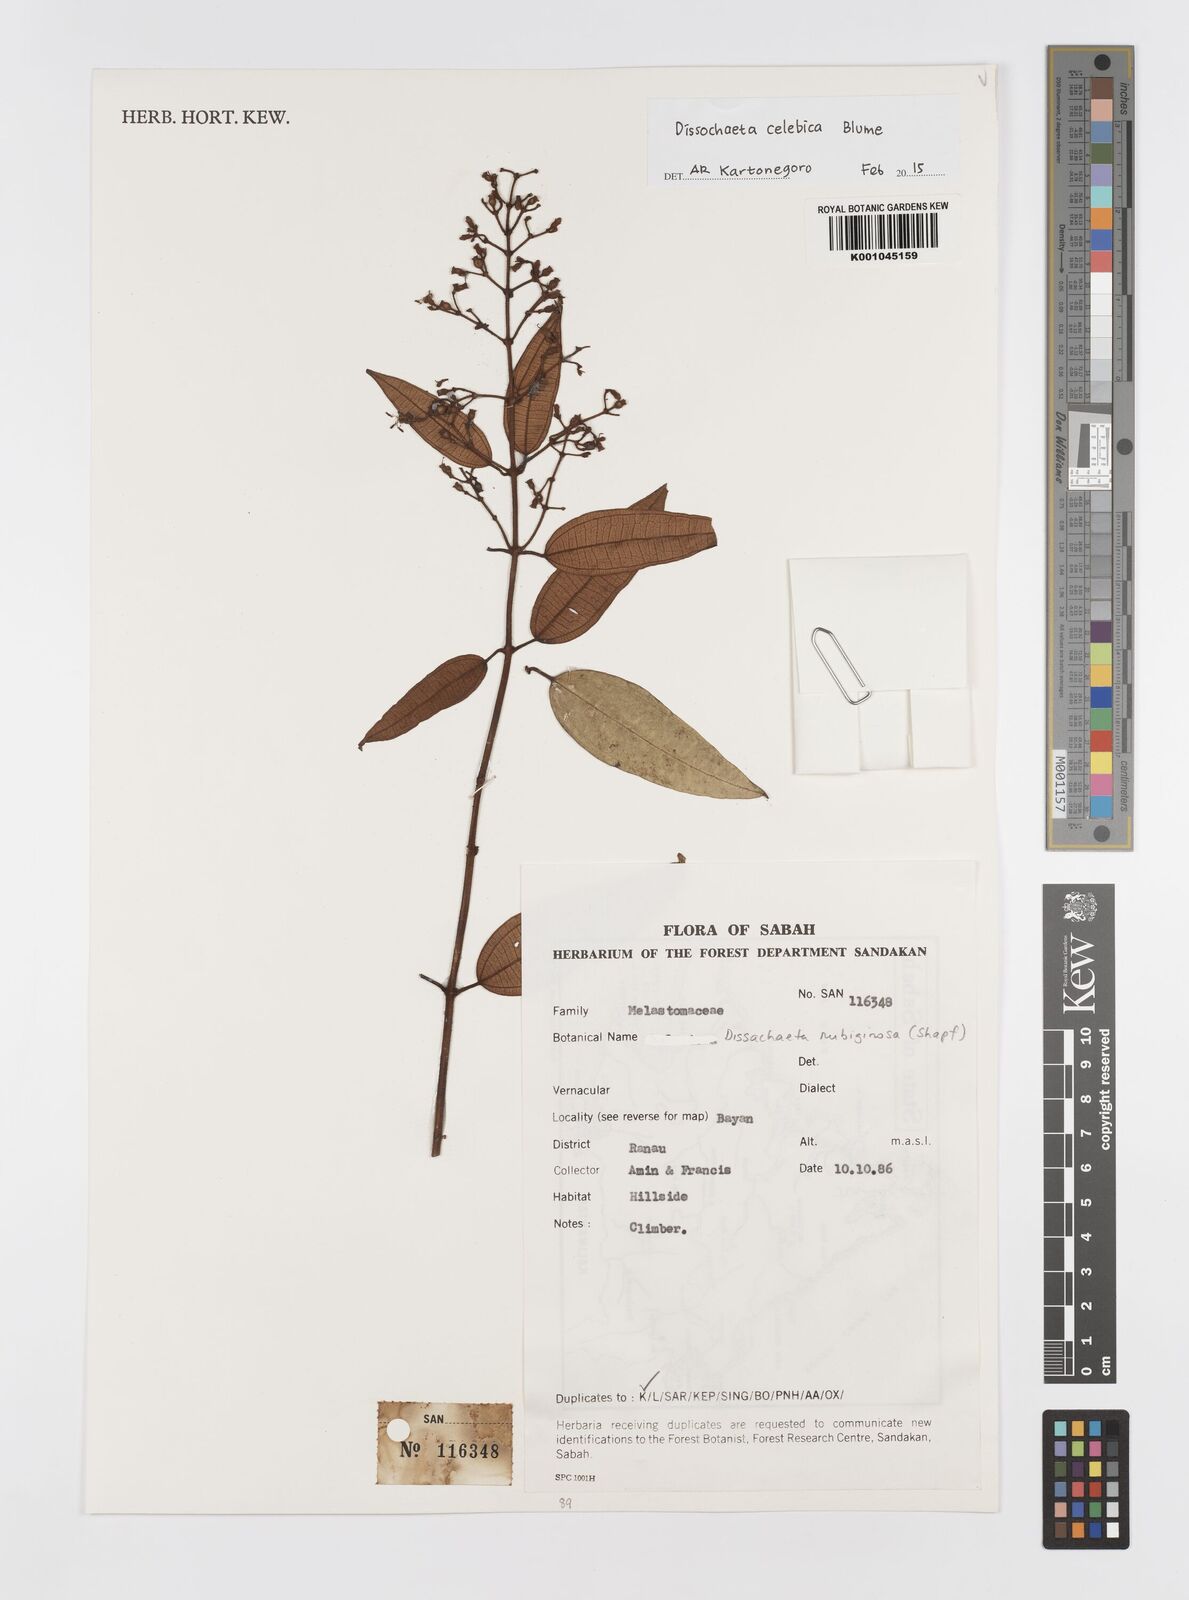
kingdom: Plantae
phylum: Tracheophyta
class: Magnoliopsida
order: Myrtales
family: Melastomataceae
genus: Dissochaeta
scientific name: Dissochaeta celebica
